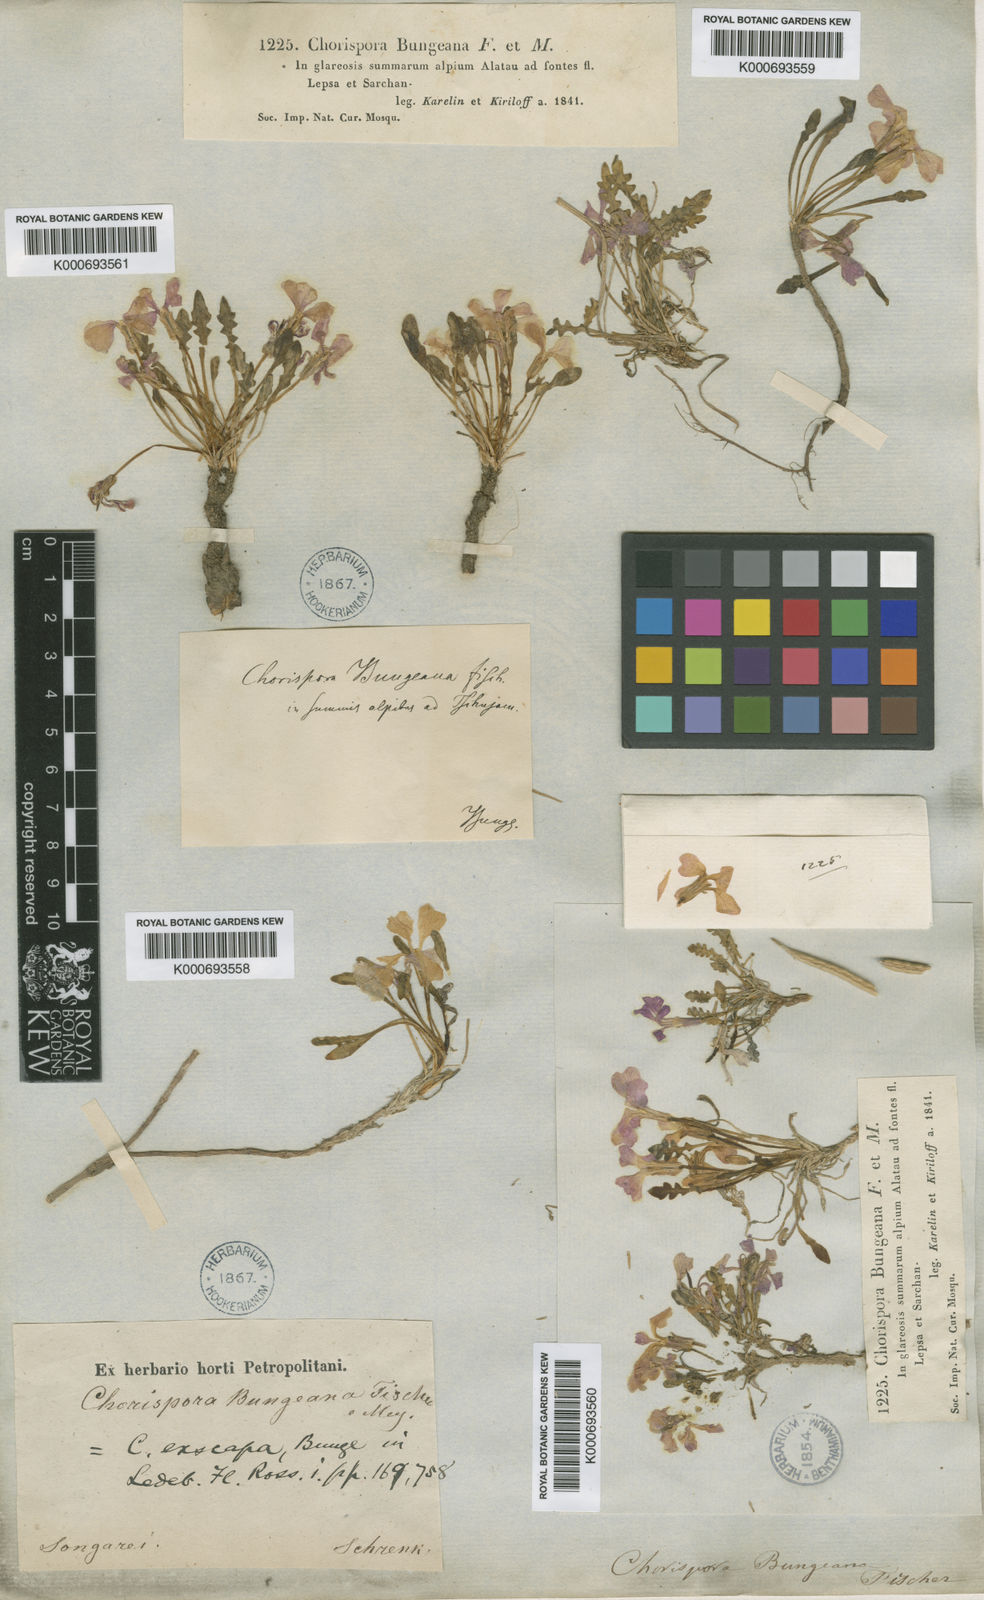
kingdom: Plantae
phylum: Tracheophyta
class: Magnoliopsida
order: Brassicales
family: Brassicaceae
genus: Chorispora
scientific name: Chorispora bungeana
